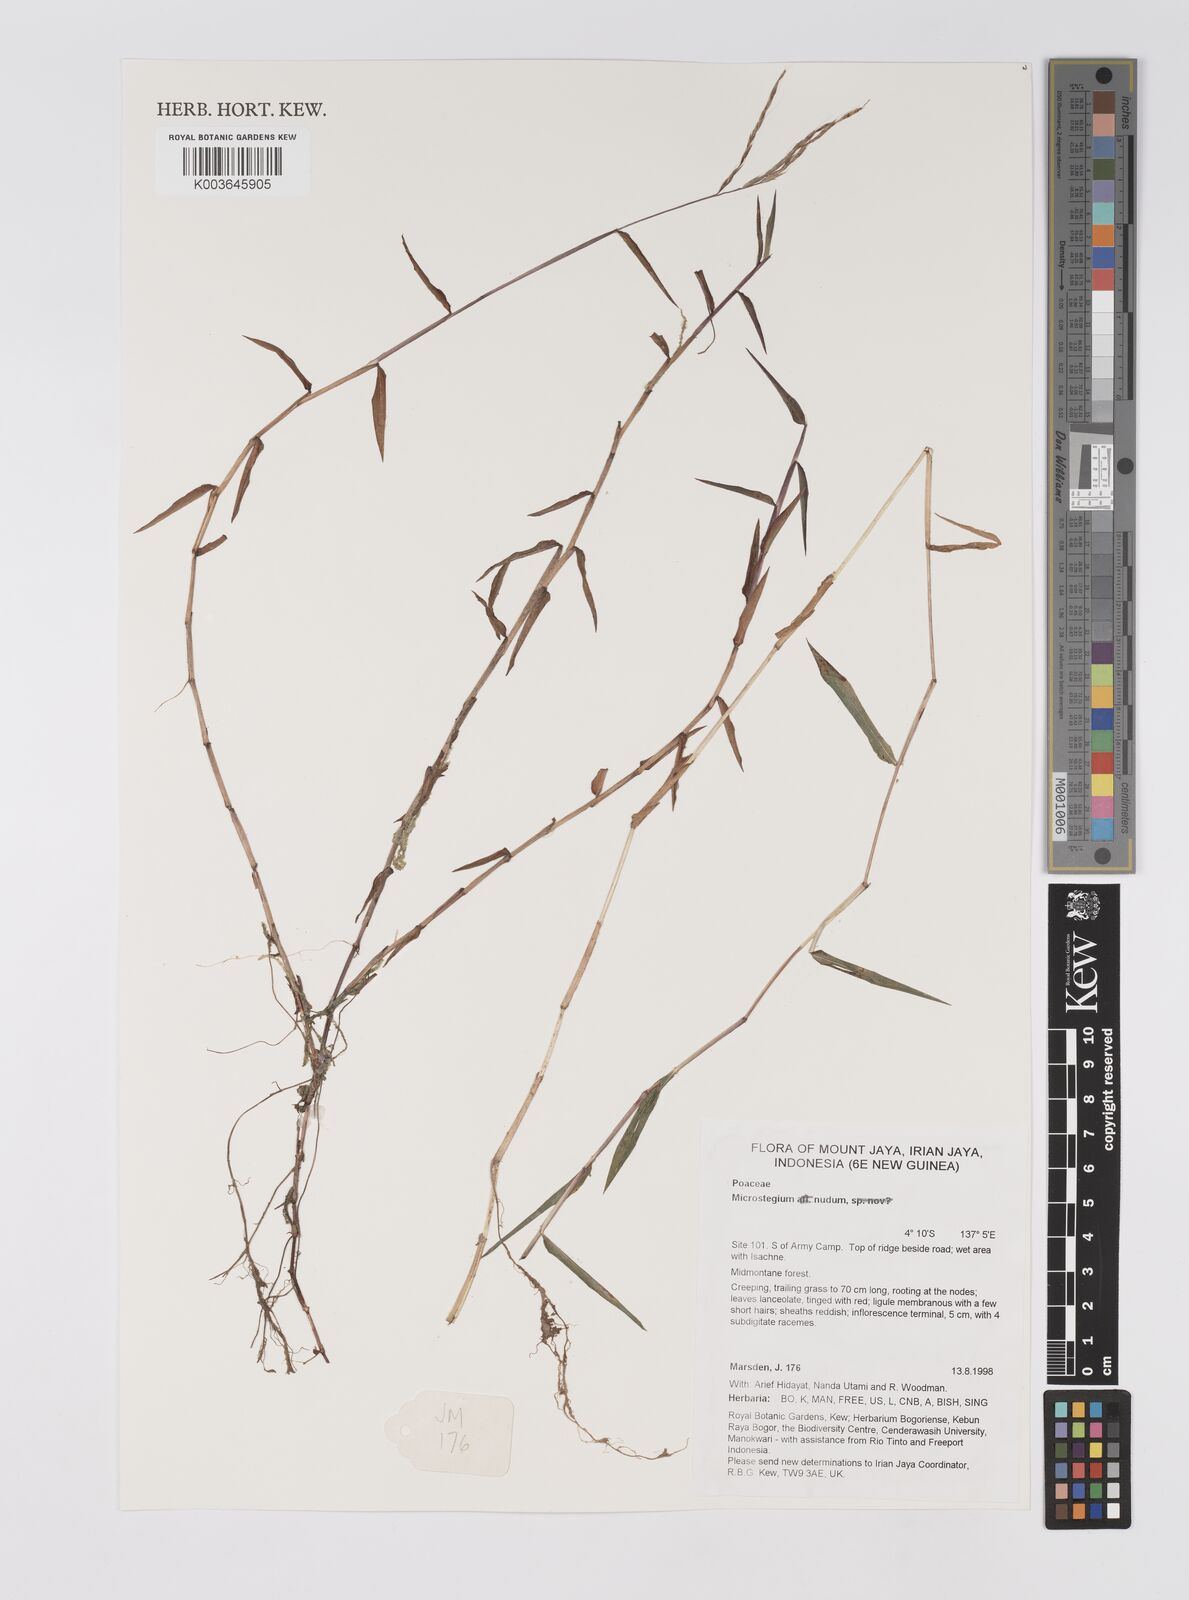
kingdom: Plantae
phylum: Tracheophyta
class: Liliopsida
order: Poales
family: Poaceae
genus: Microstegium
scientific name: Microstegium nudum
